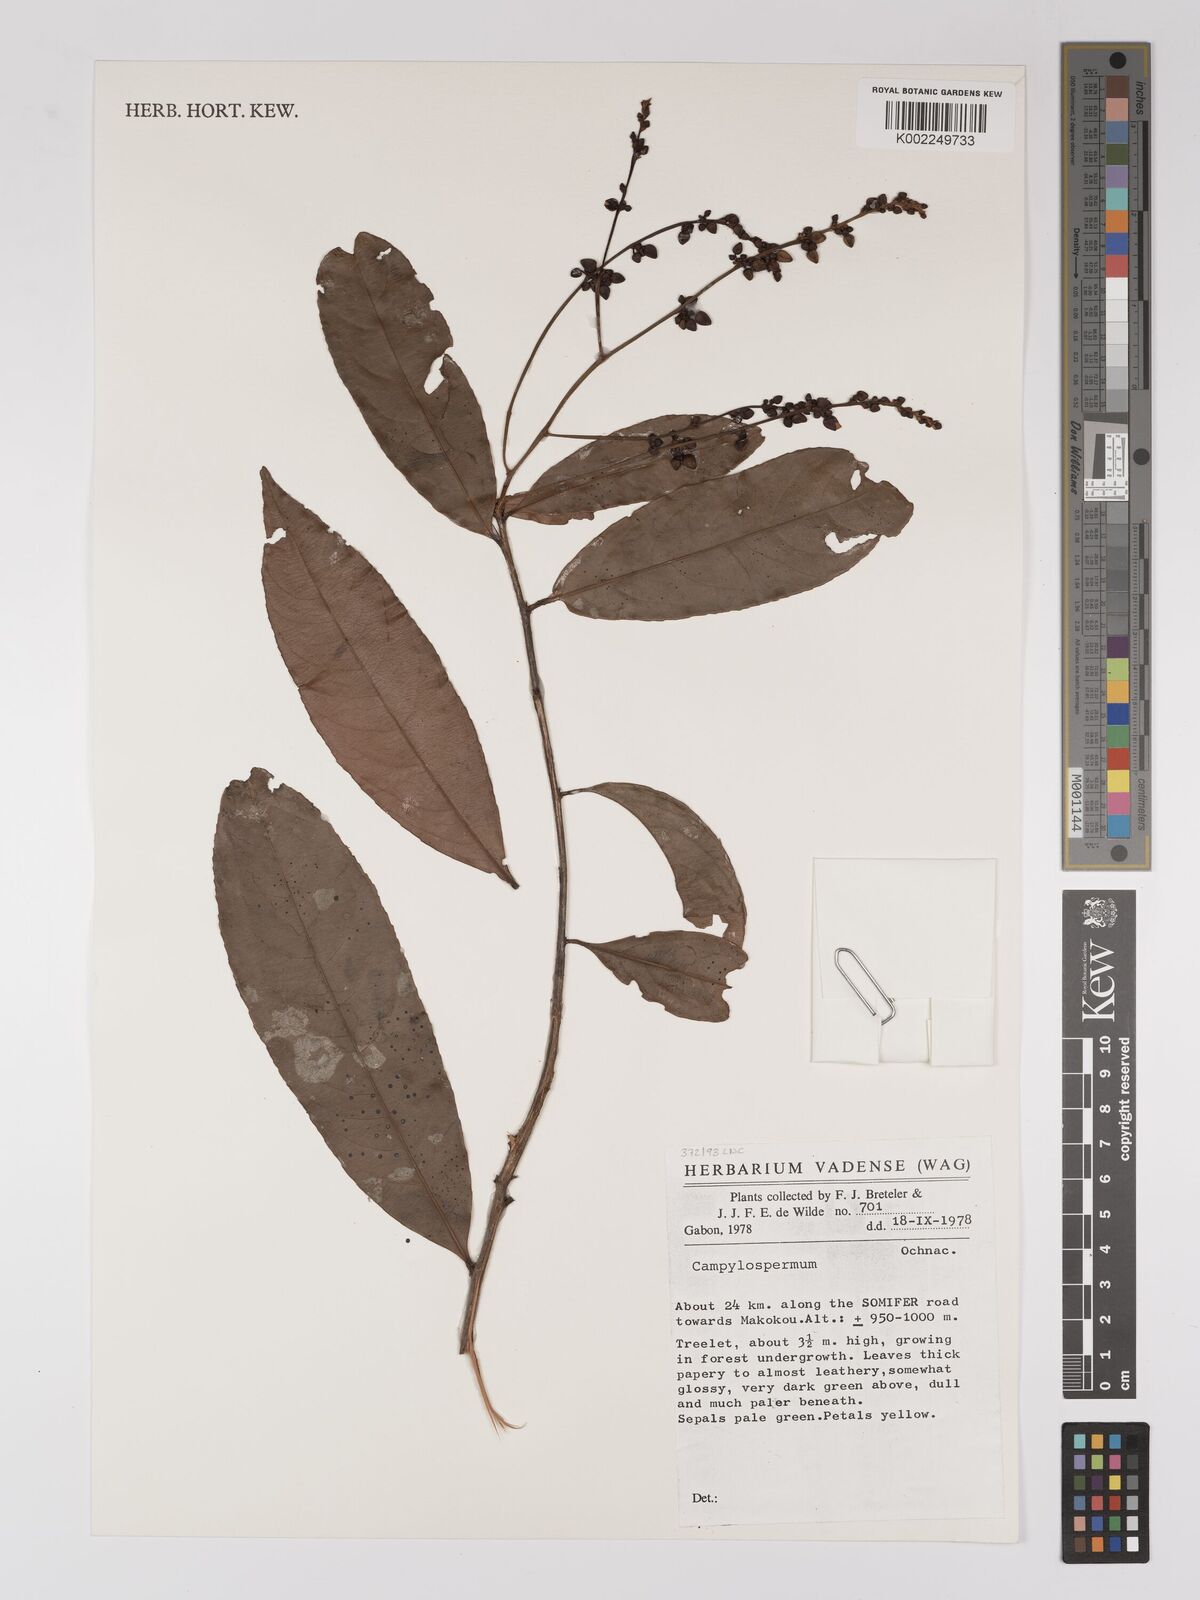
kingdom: Plantae
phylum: Tracheophyta
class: Magnoliopsida
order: Malpighiales
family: Ochnaceae
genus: Campylospermum
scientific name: Campylospermum
